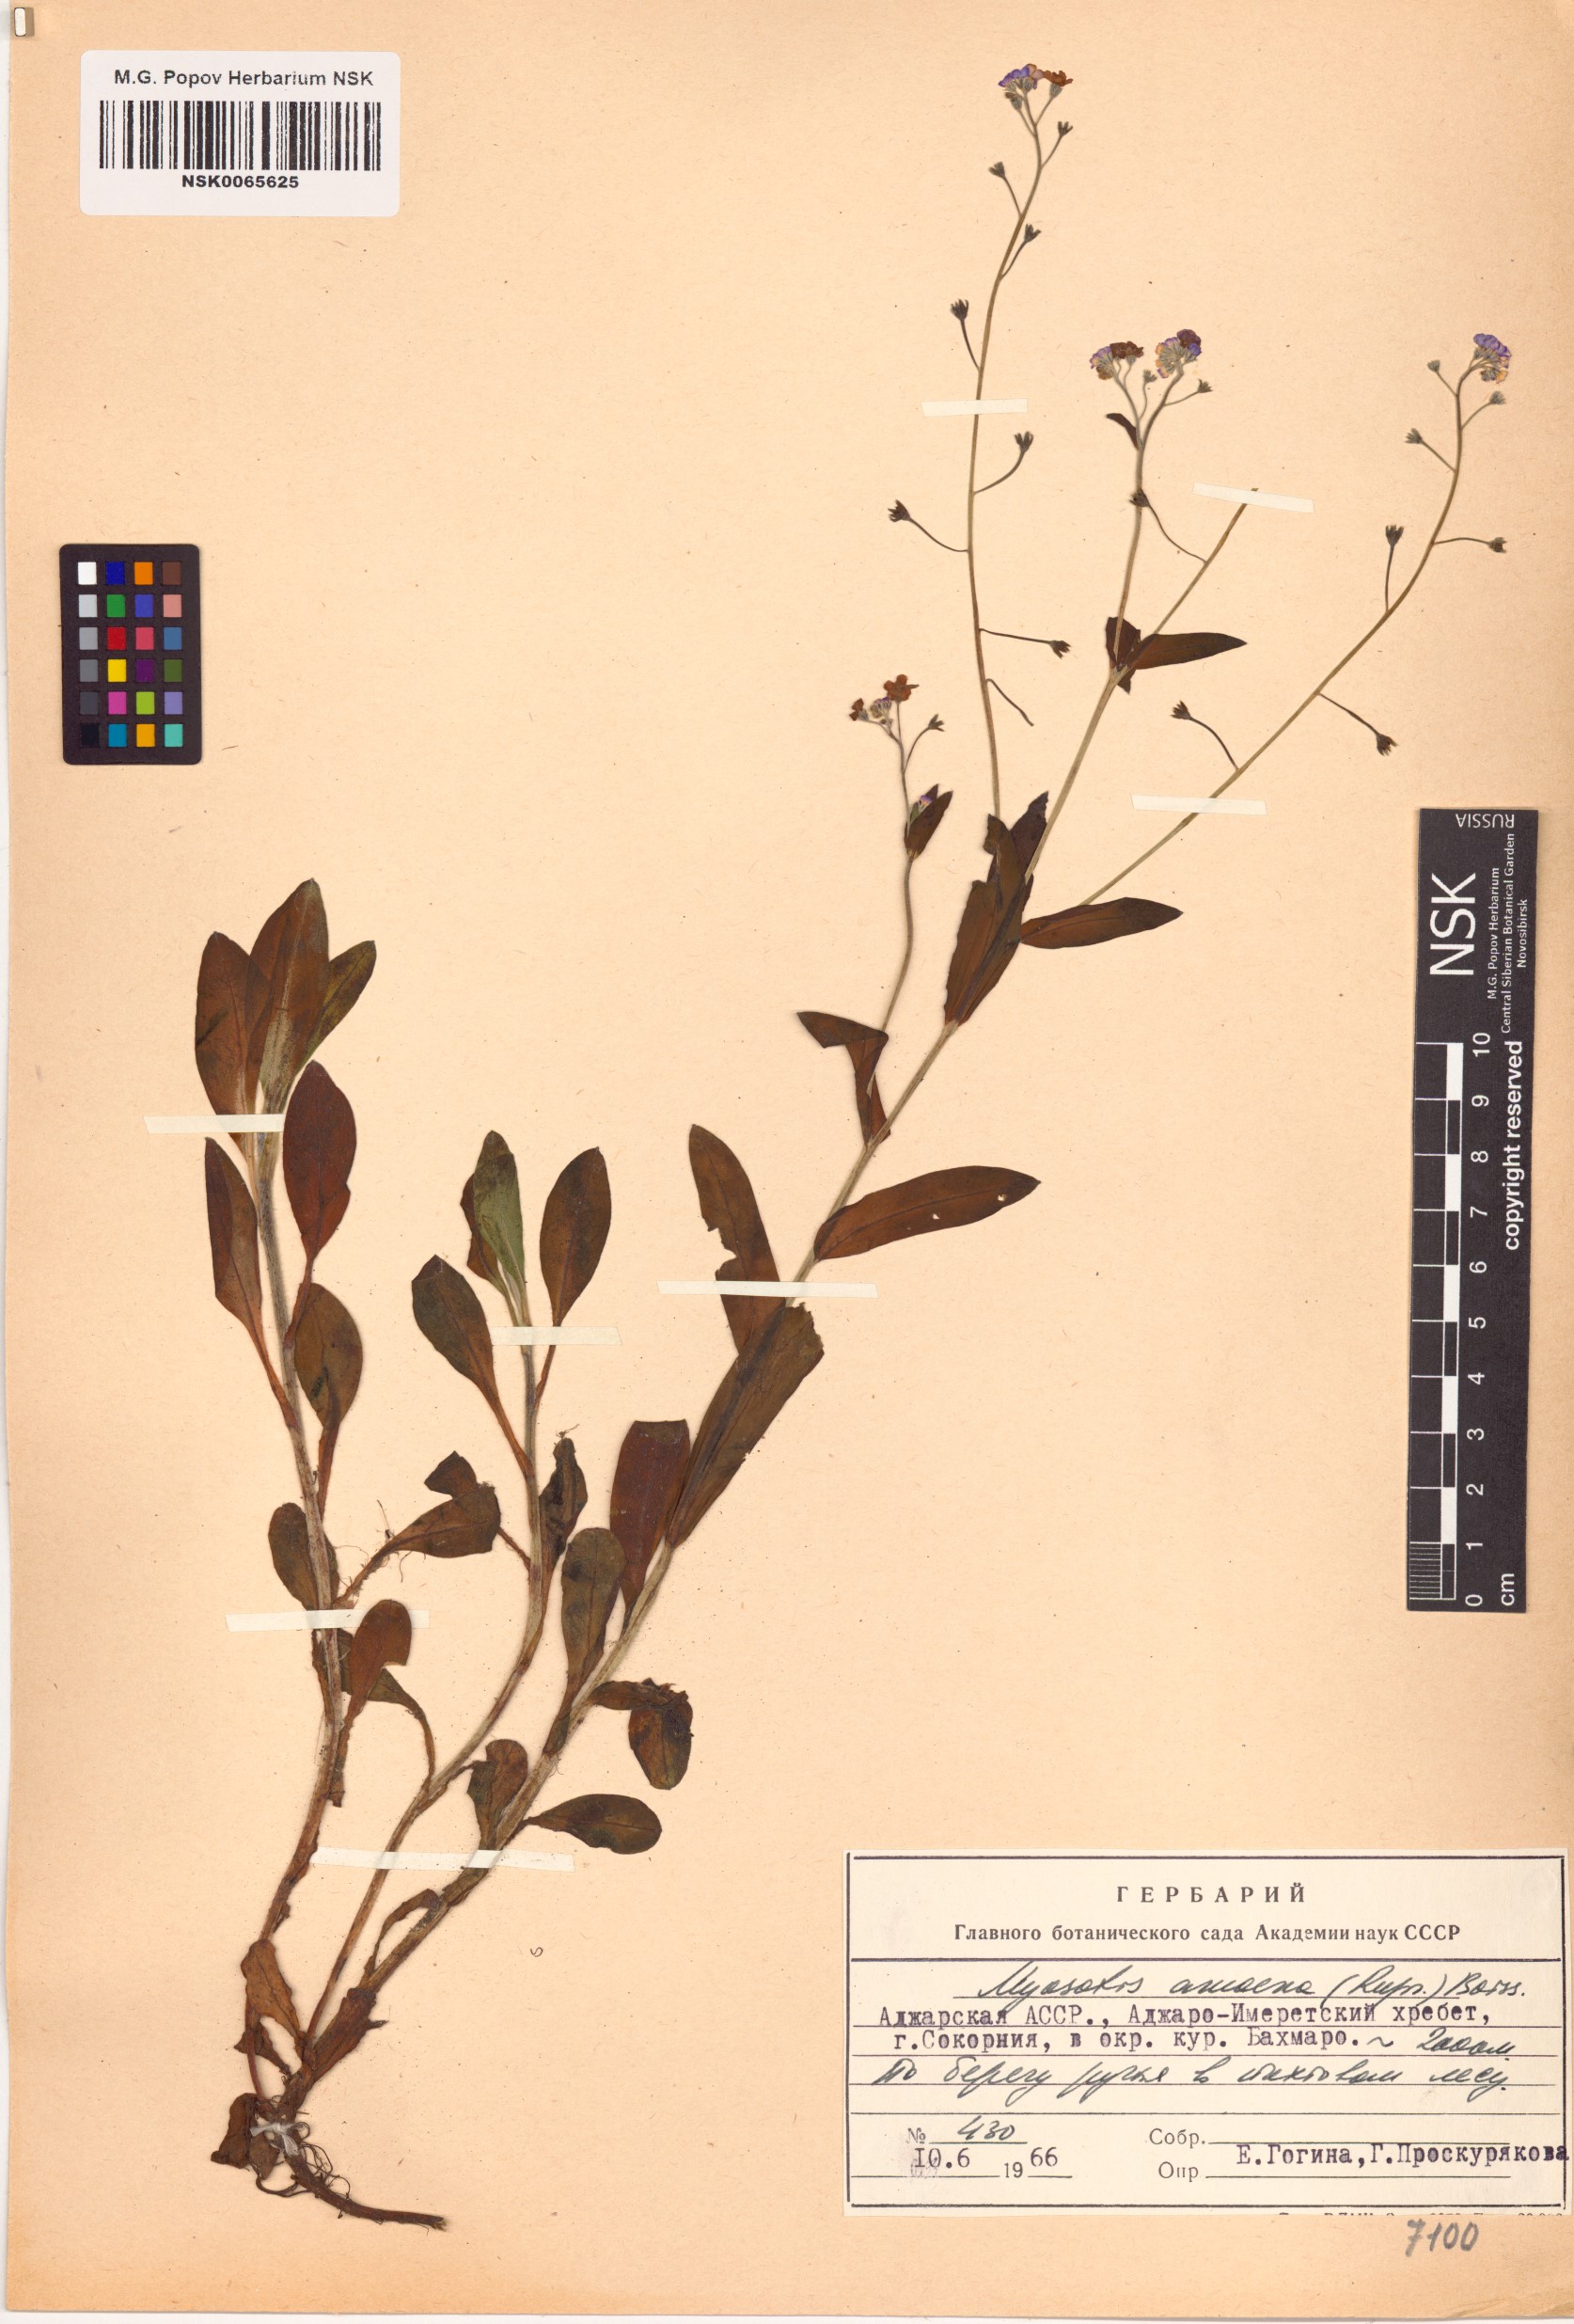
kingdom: Plantae
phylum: Tracheophyta
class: Magnoliopsida
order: Boraginales
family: Boraginaceae
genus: Myosotis
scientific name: Myosotis dissitiflora
